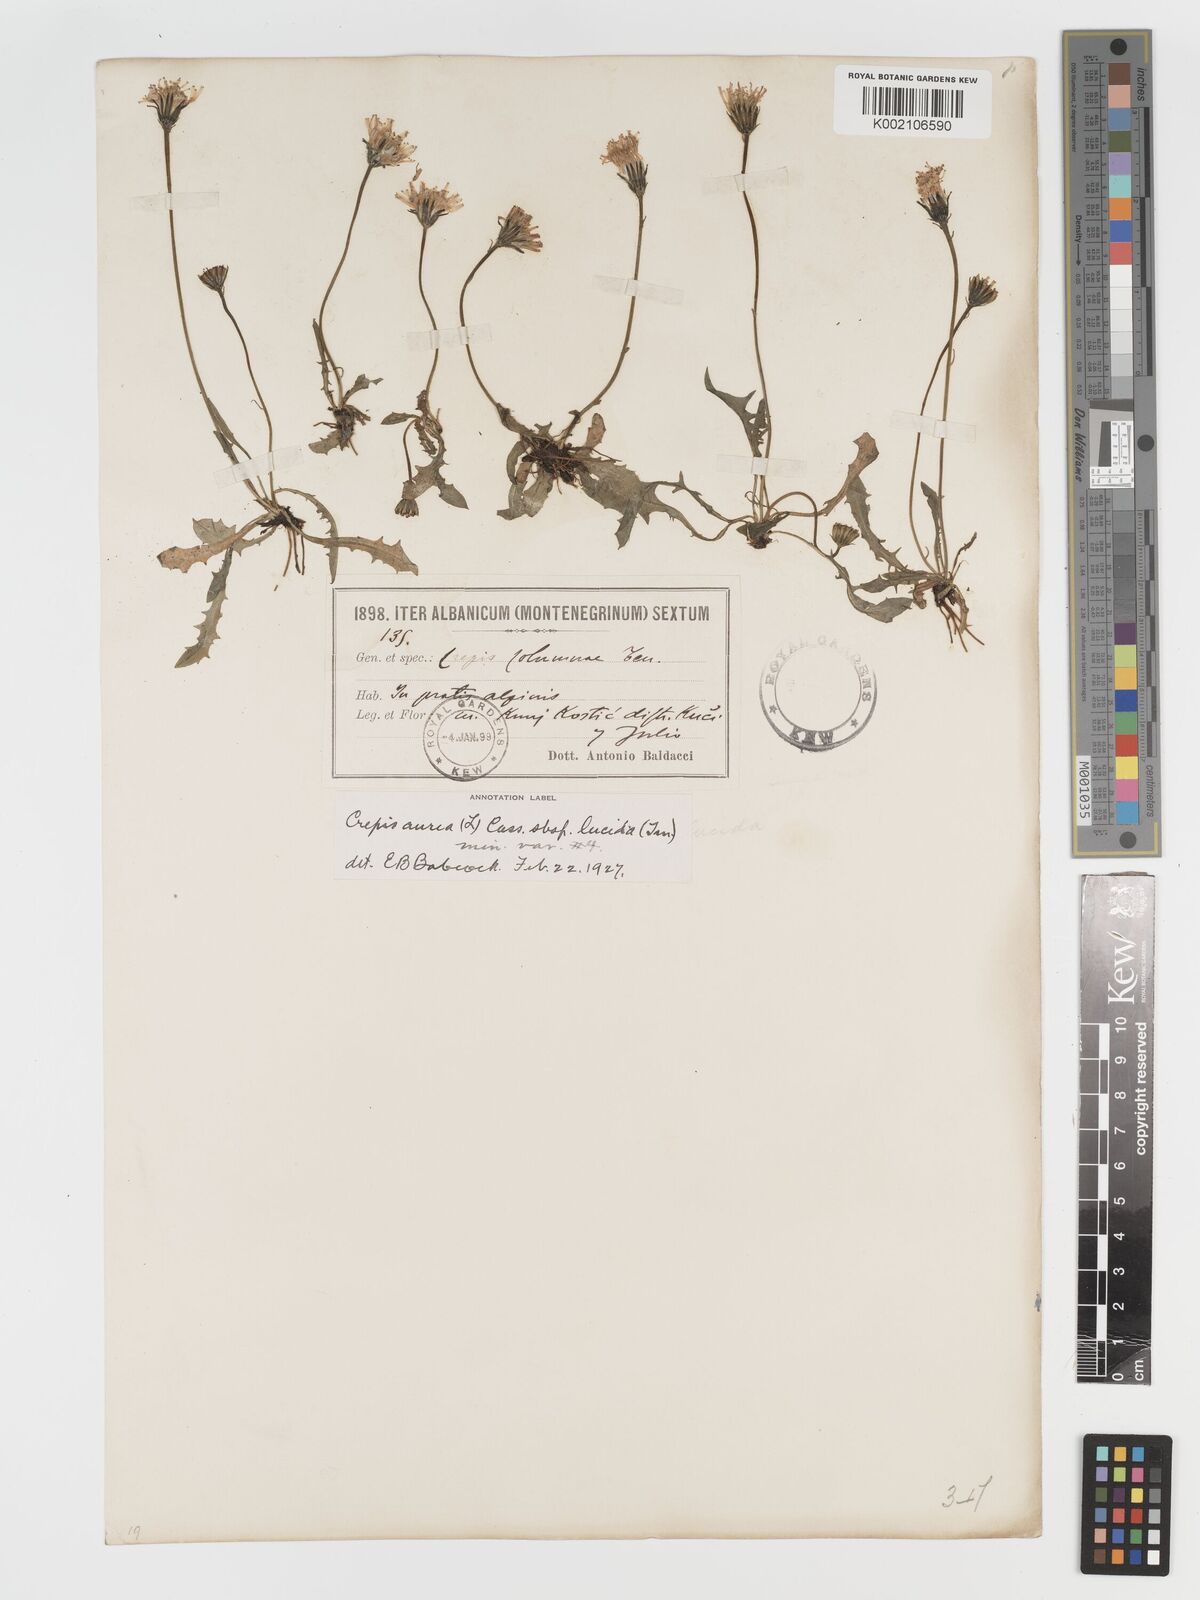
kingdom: Plantae
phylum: Tracheophyta
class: Magnoliopsida
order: Asterales
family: Asteraceae
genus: Crepis
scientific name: Crepis aurea
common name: Golden hawk's-beard
